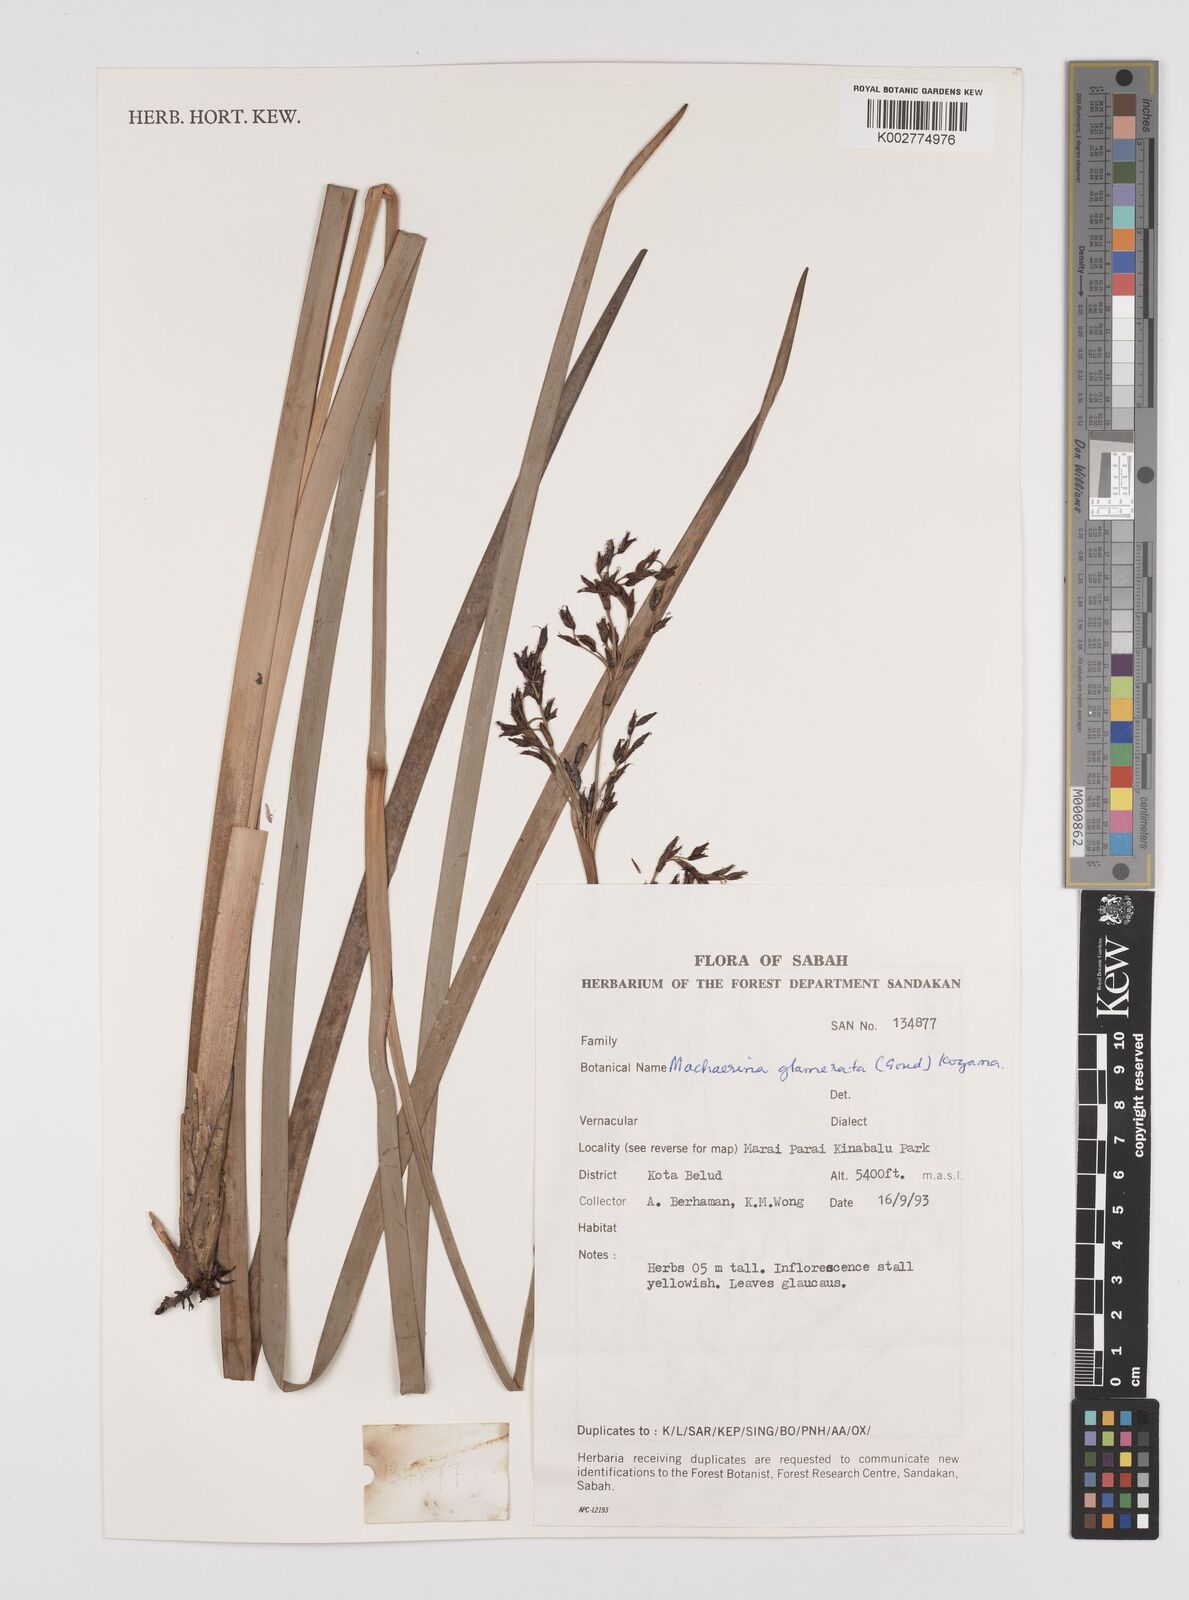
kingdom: Plantae
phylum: Tracheophyta
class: Liliopsida
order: Poales
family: Cyperaceae
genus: Machaerina
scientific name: Machaerina glomerata
